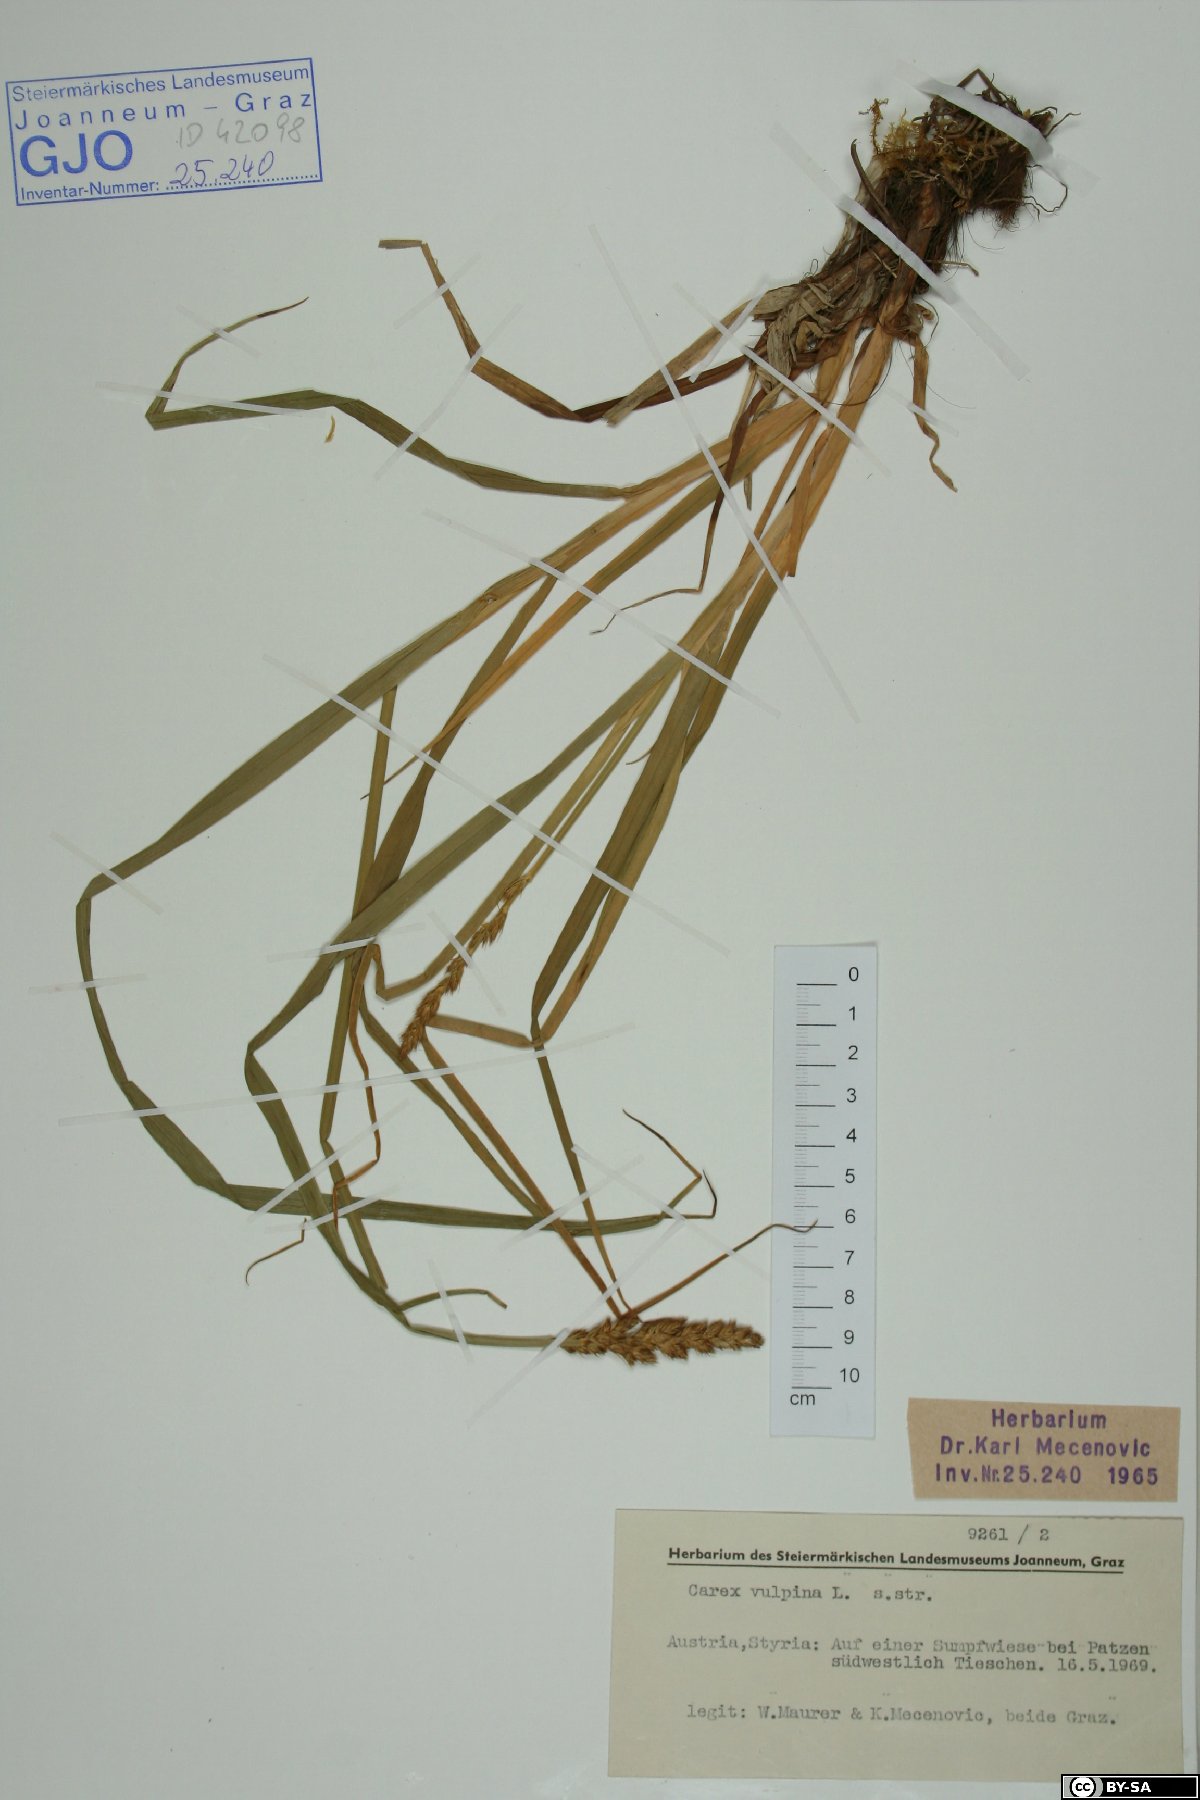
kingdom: Plantae
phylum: Tracheophyta
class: Liliopsida
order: Poales
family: Cyperaceae
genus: Carex
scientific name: Carex vulpina
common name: True fox-sedge
